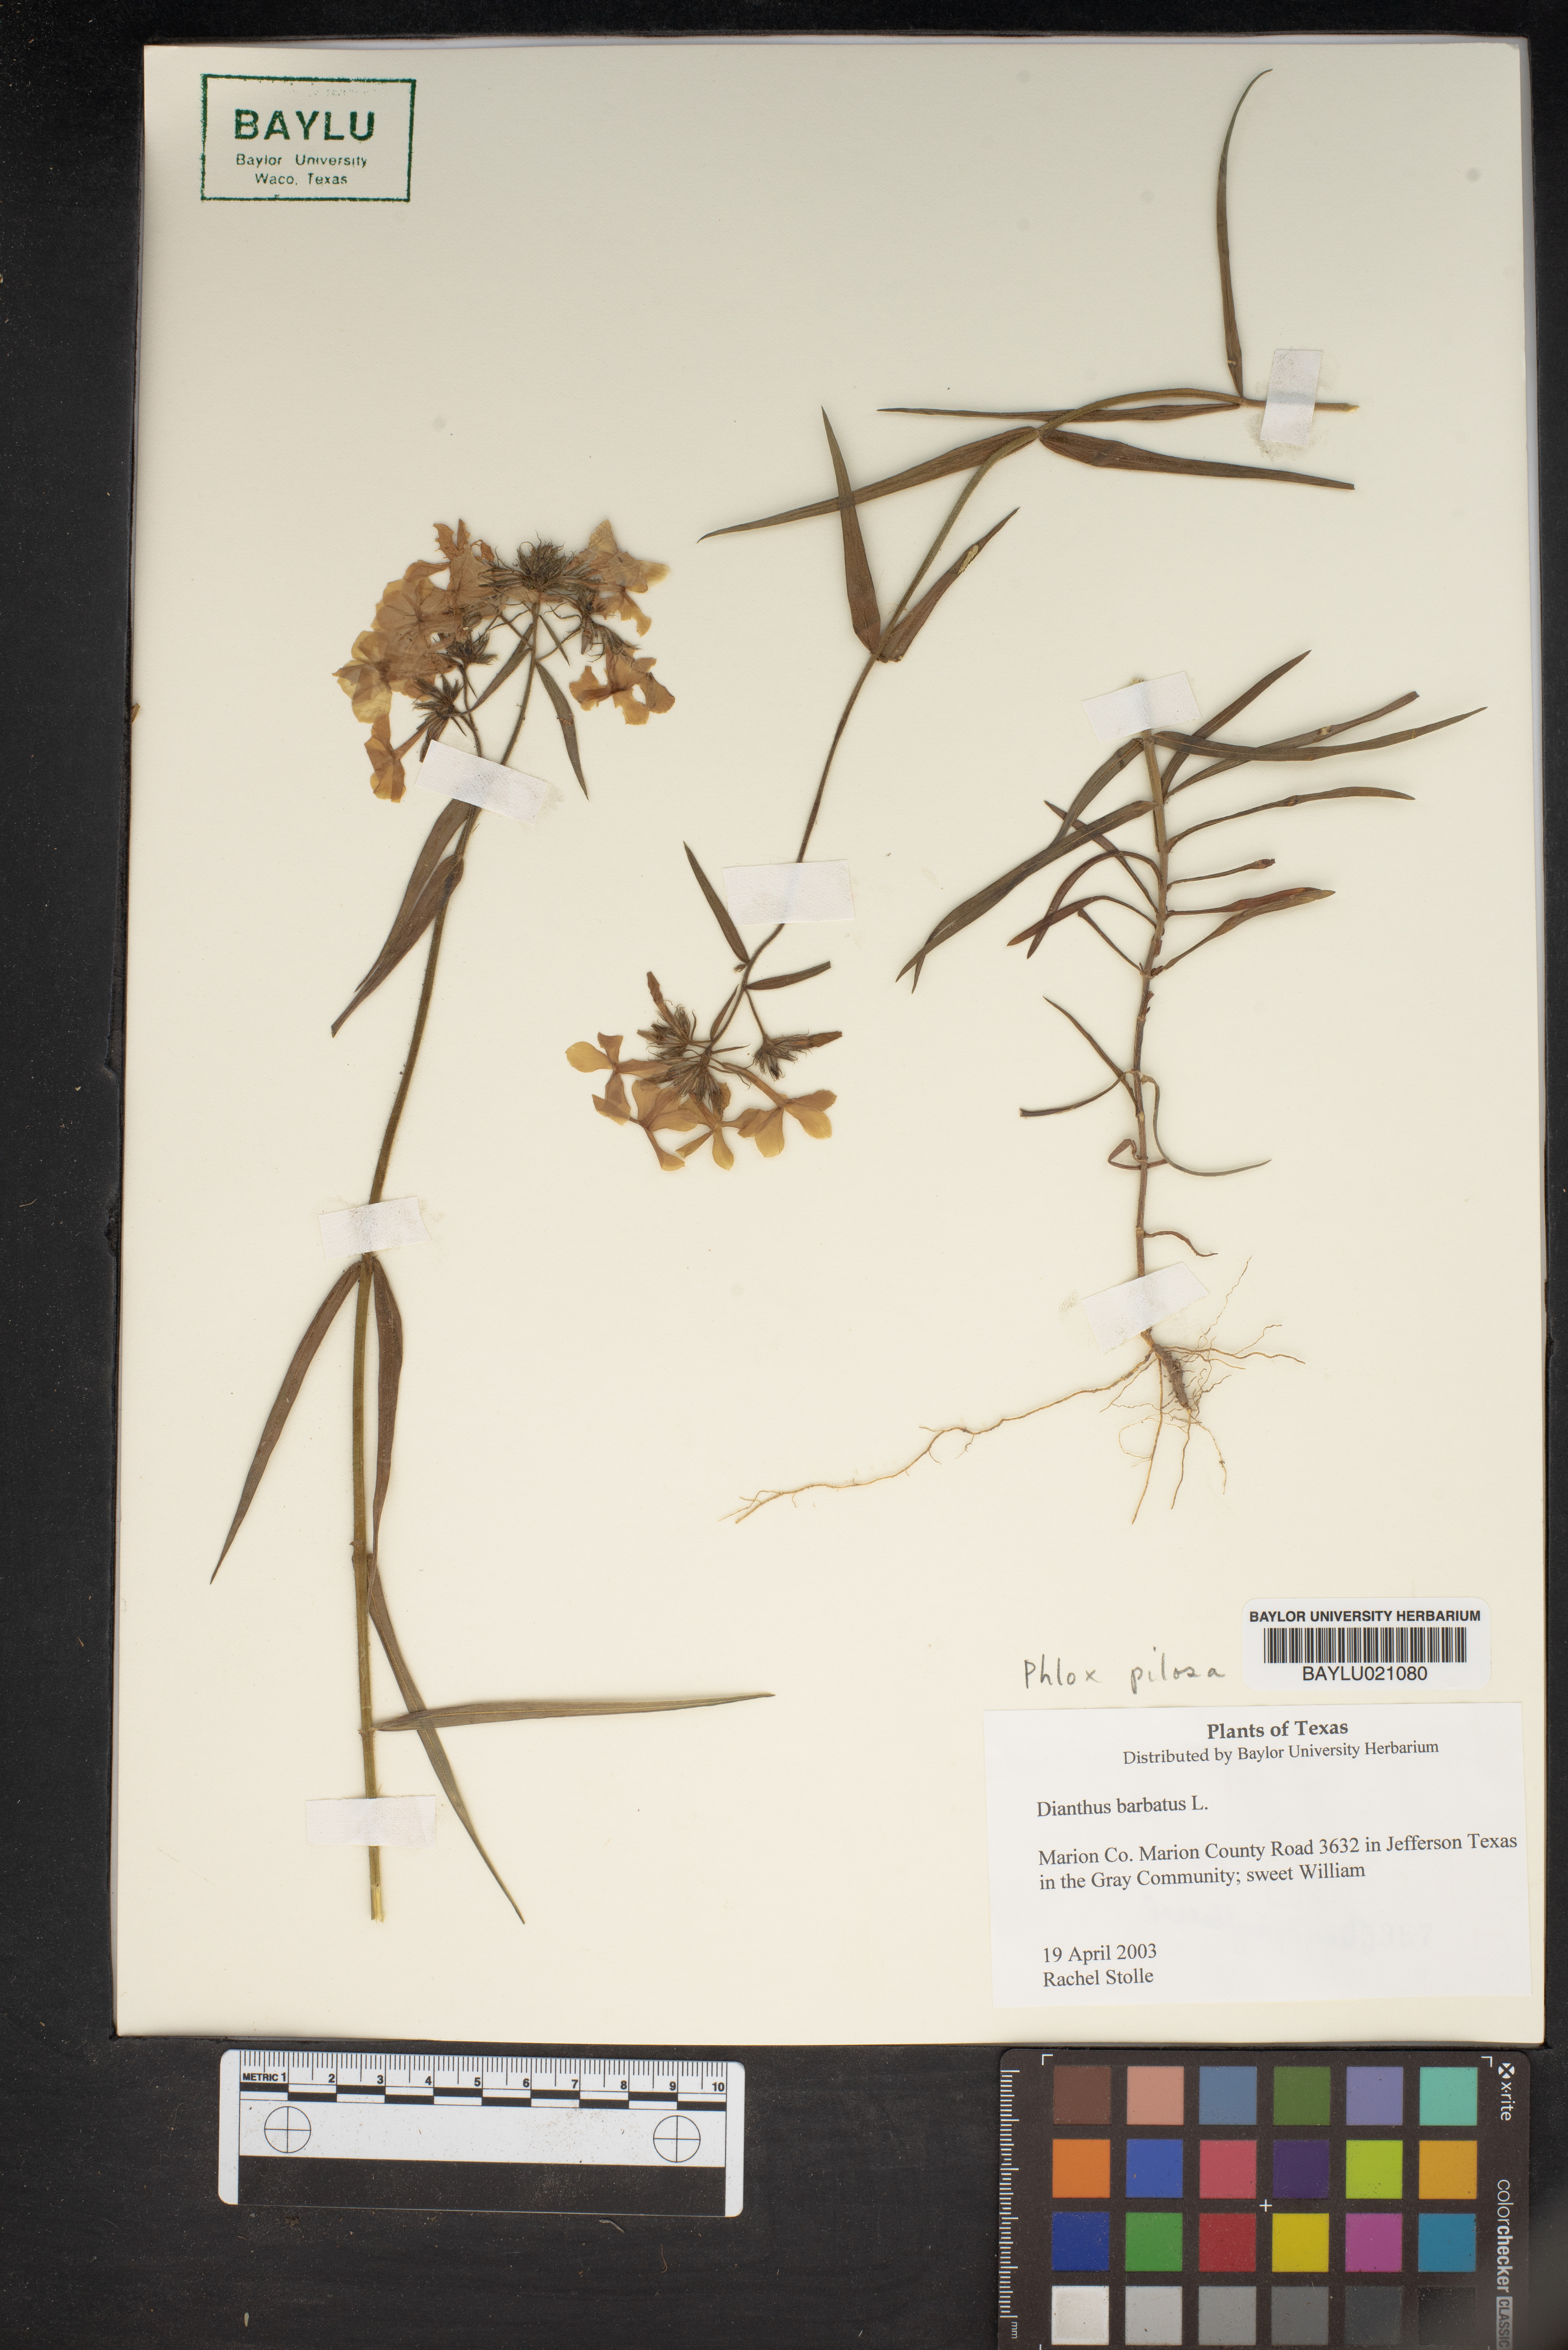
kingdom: Plantae
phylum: Tracheophyta
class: Magnoliopsida
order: Caryophyllales
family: Caryophyllaceae
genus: Dianthus
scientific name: Dianthus barbatus
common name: Sweet-william
